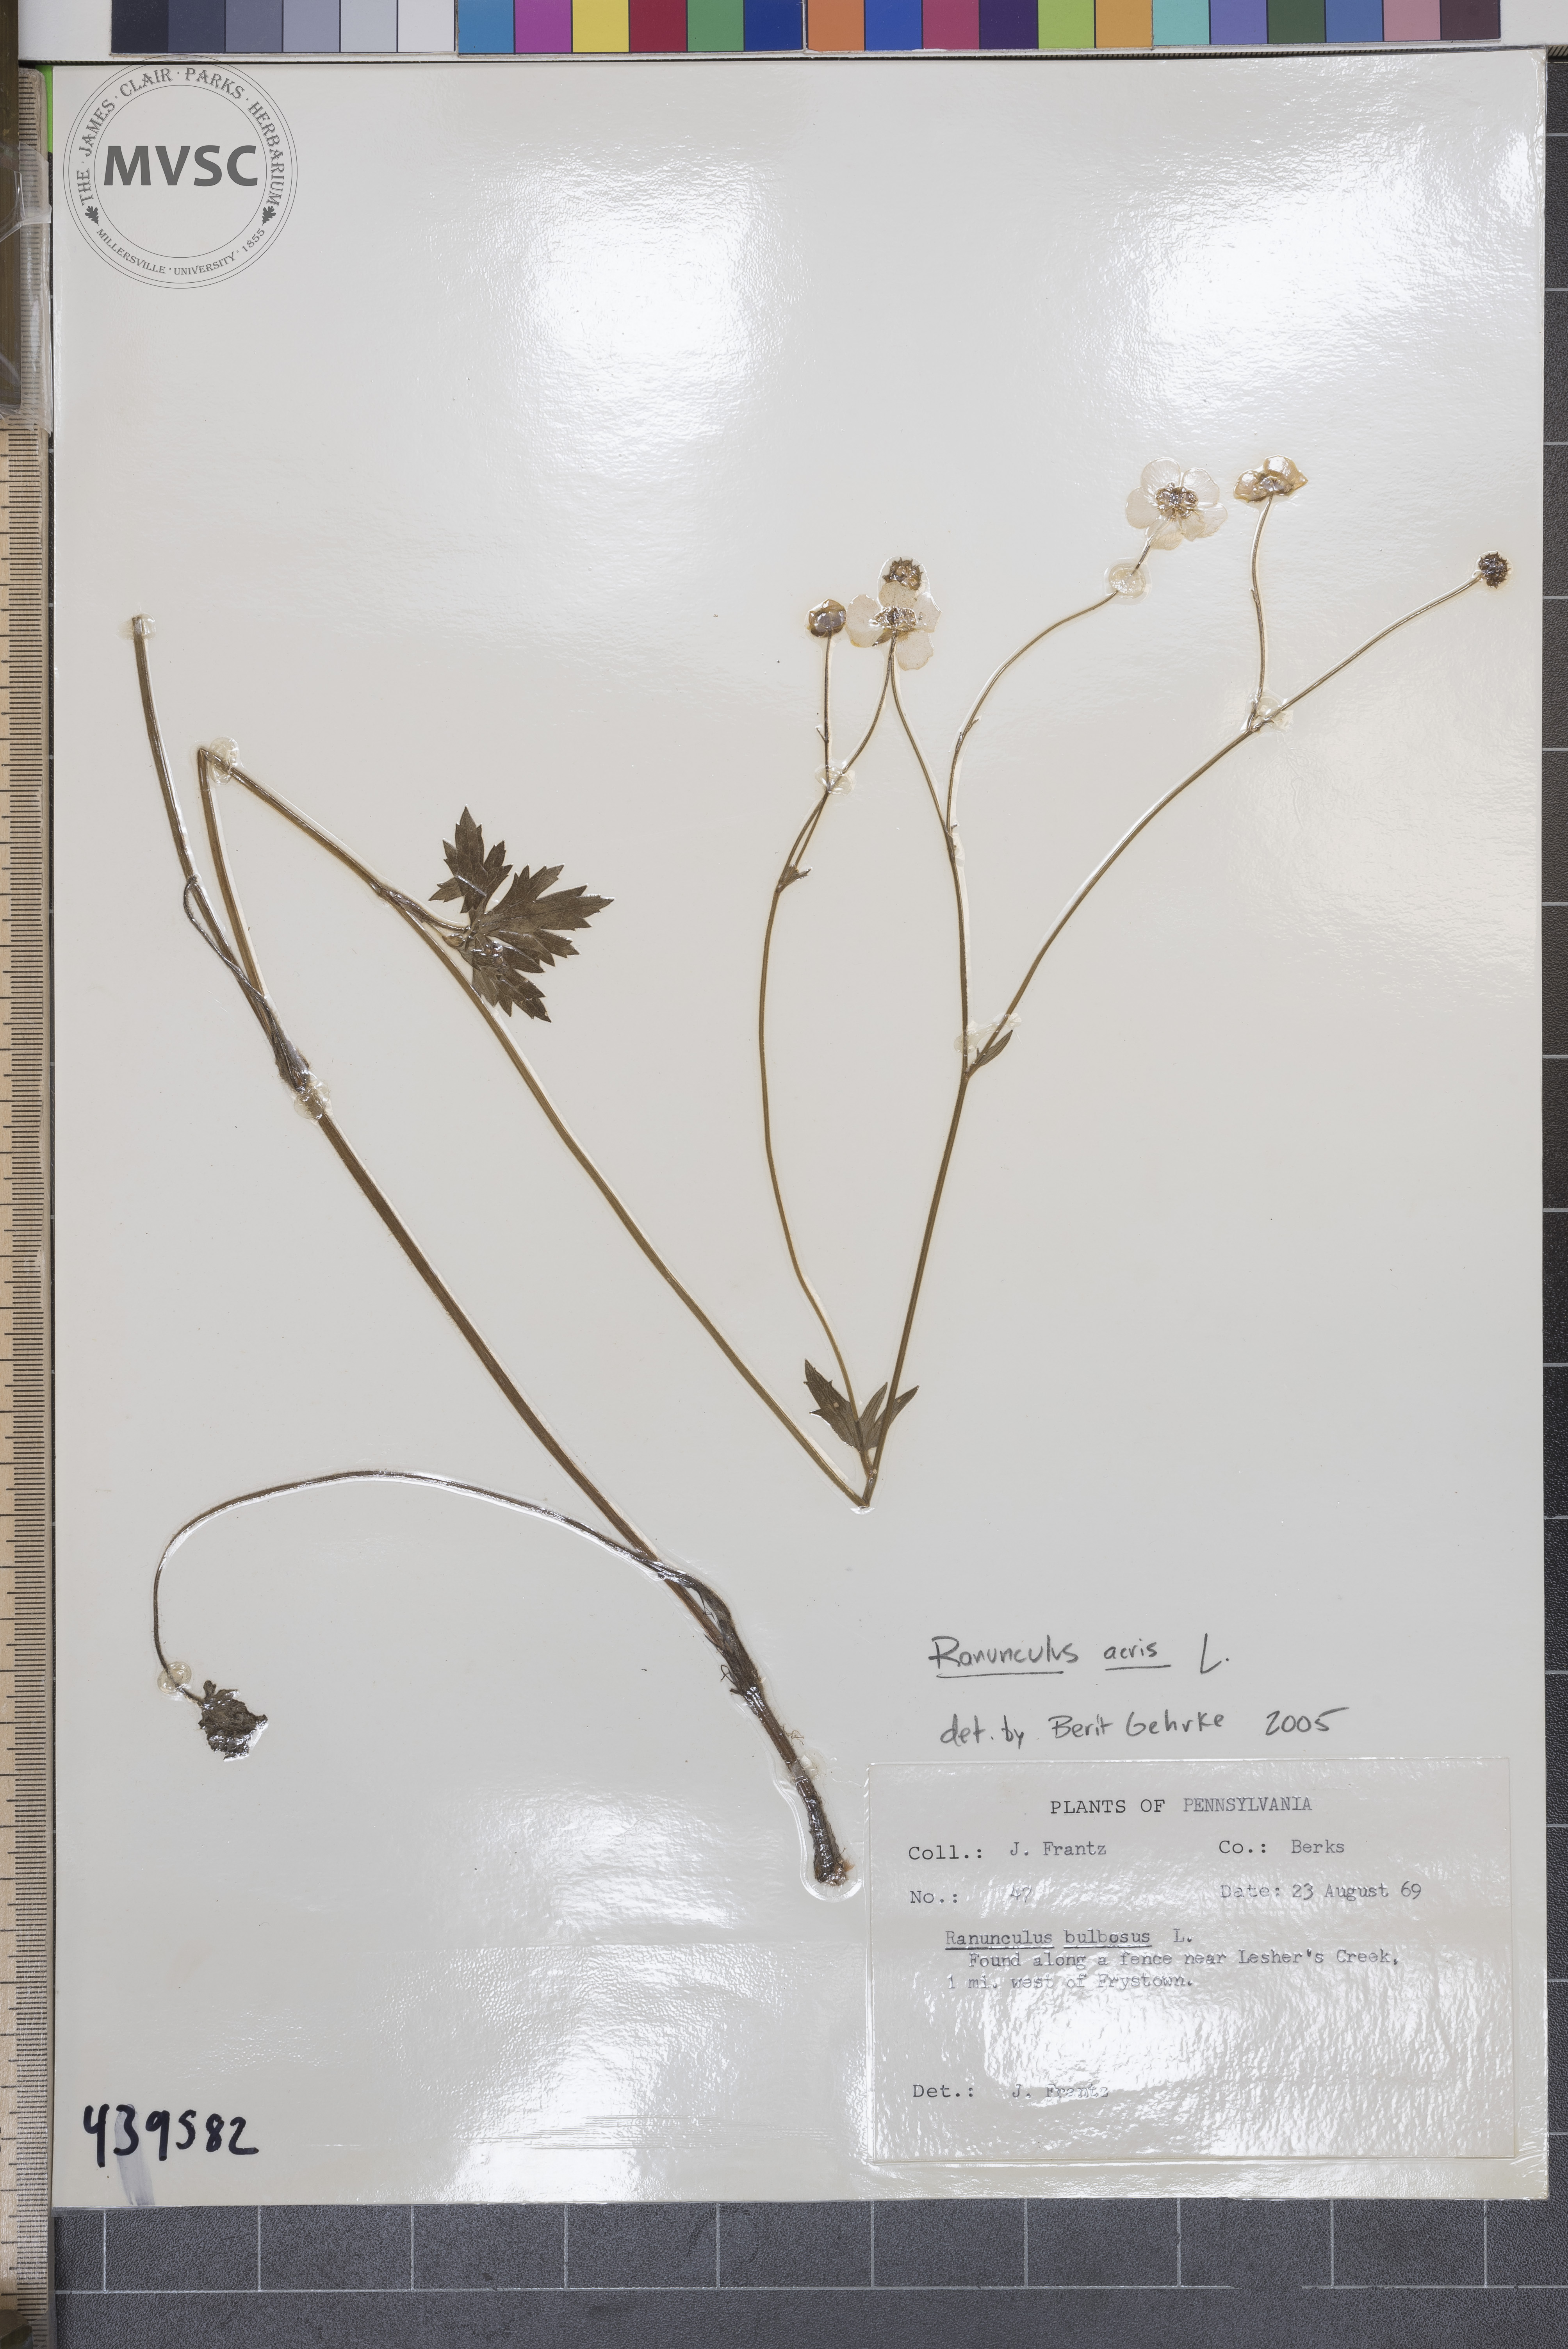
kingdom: Plantae
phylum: Tracheophyta
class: Magnoliopsida
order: Ranunculales
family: Ranunculaceae
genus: Ranunculus
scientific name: Ranunculus acris
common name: Meadow buttercup
